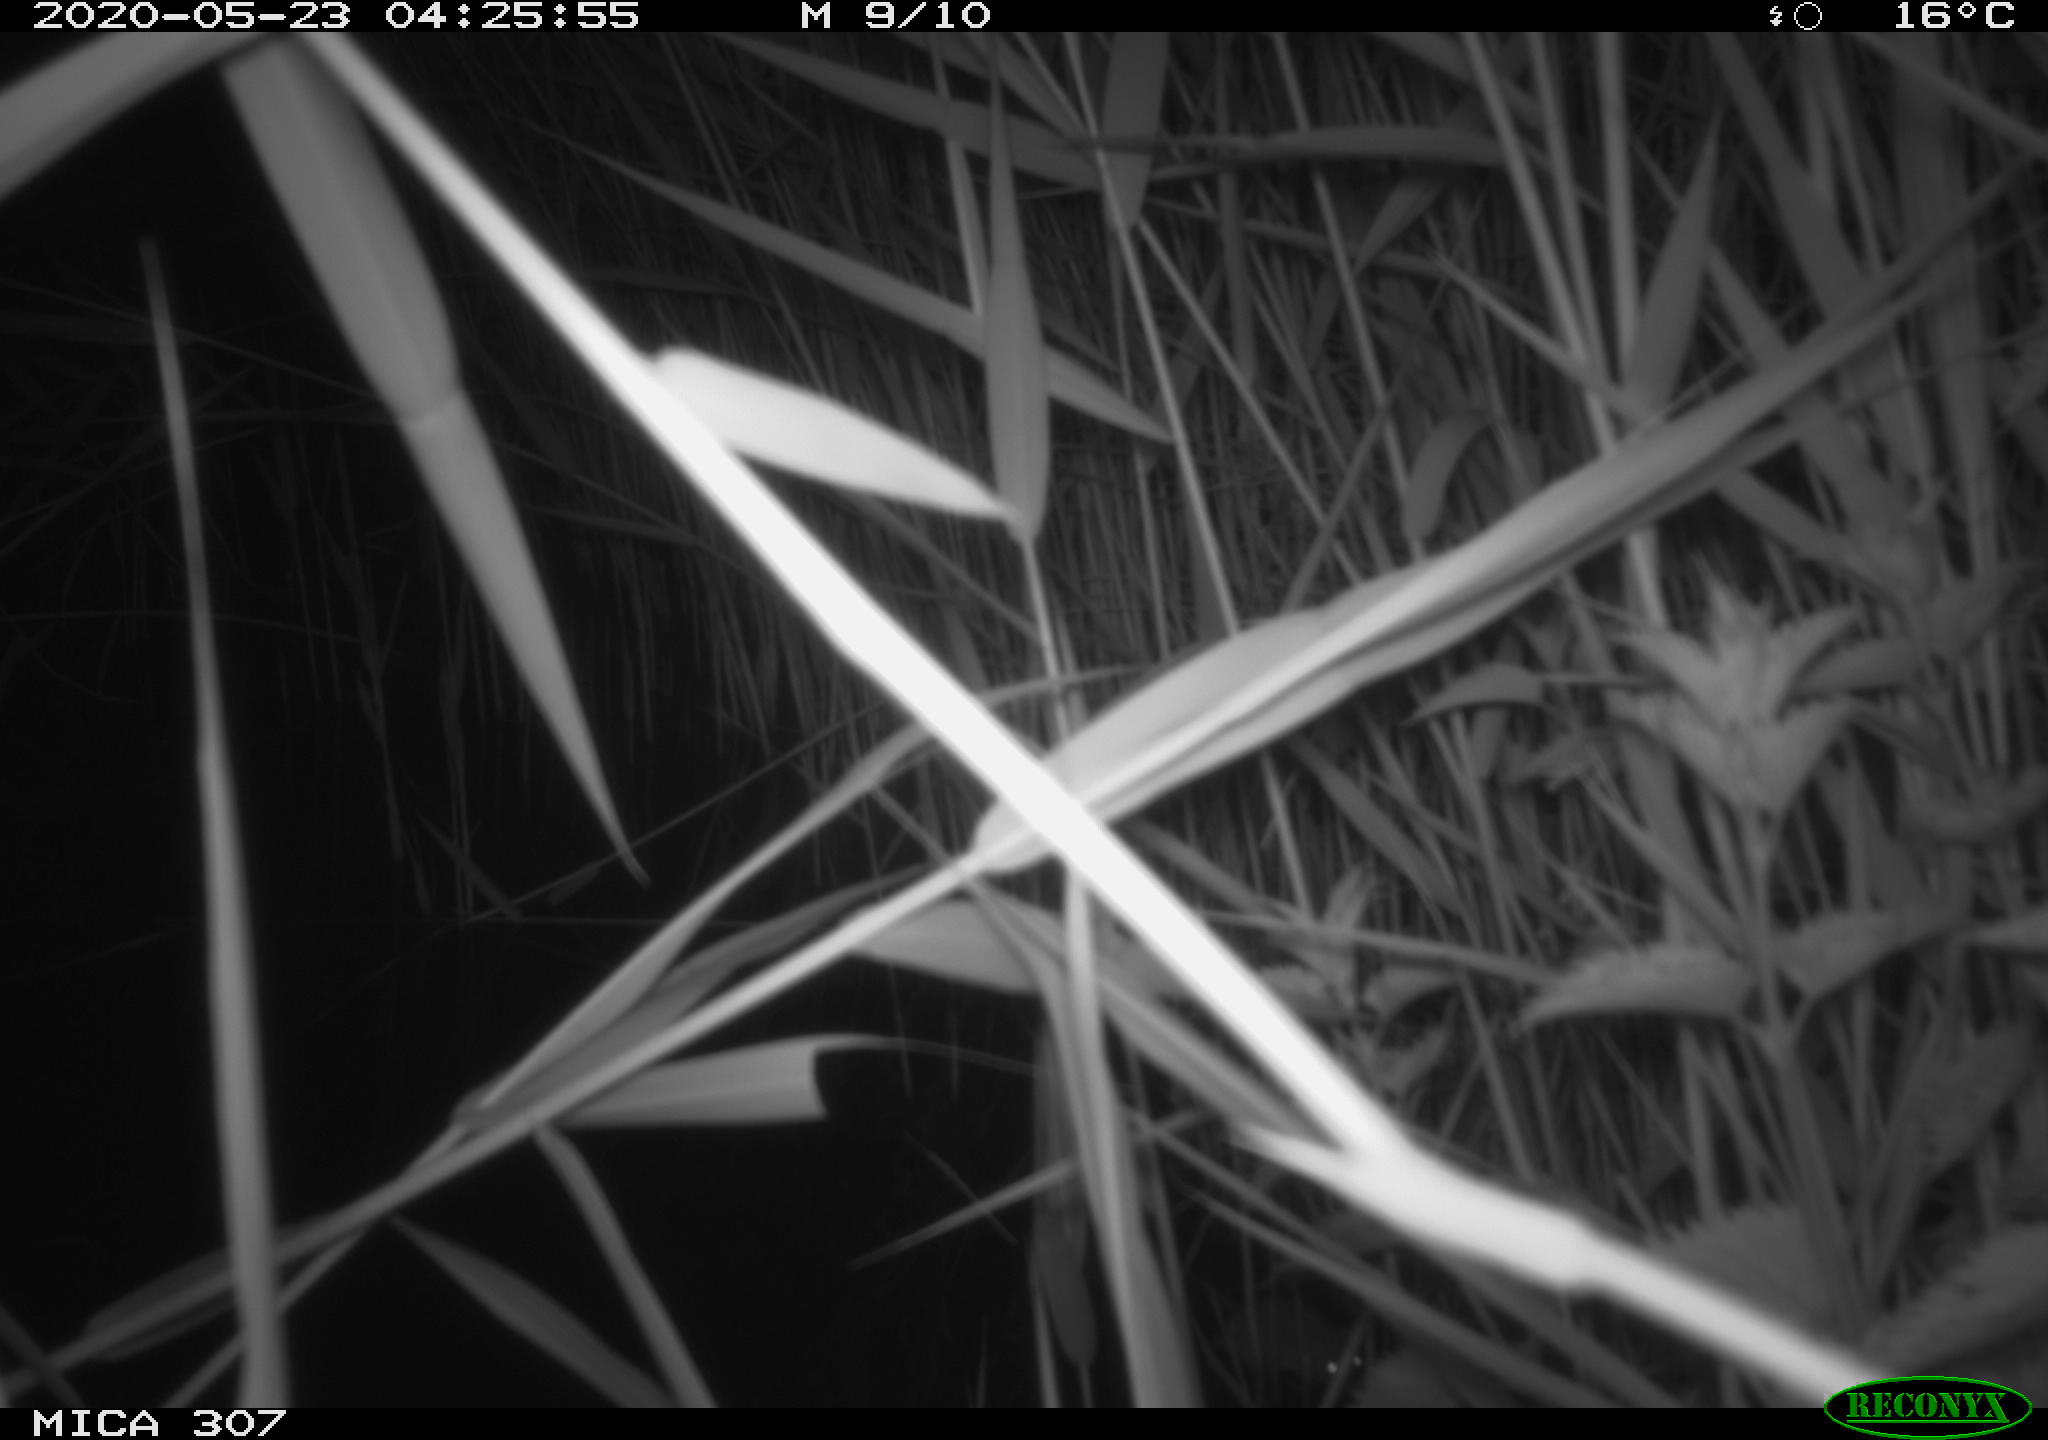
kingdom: Animalia
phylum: Chordata
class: Mammalia
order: Rodentia
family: Muridae
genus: Rattus
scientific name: Rattus norvegicus
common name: Brown rat
